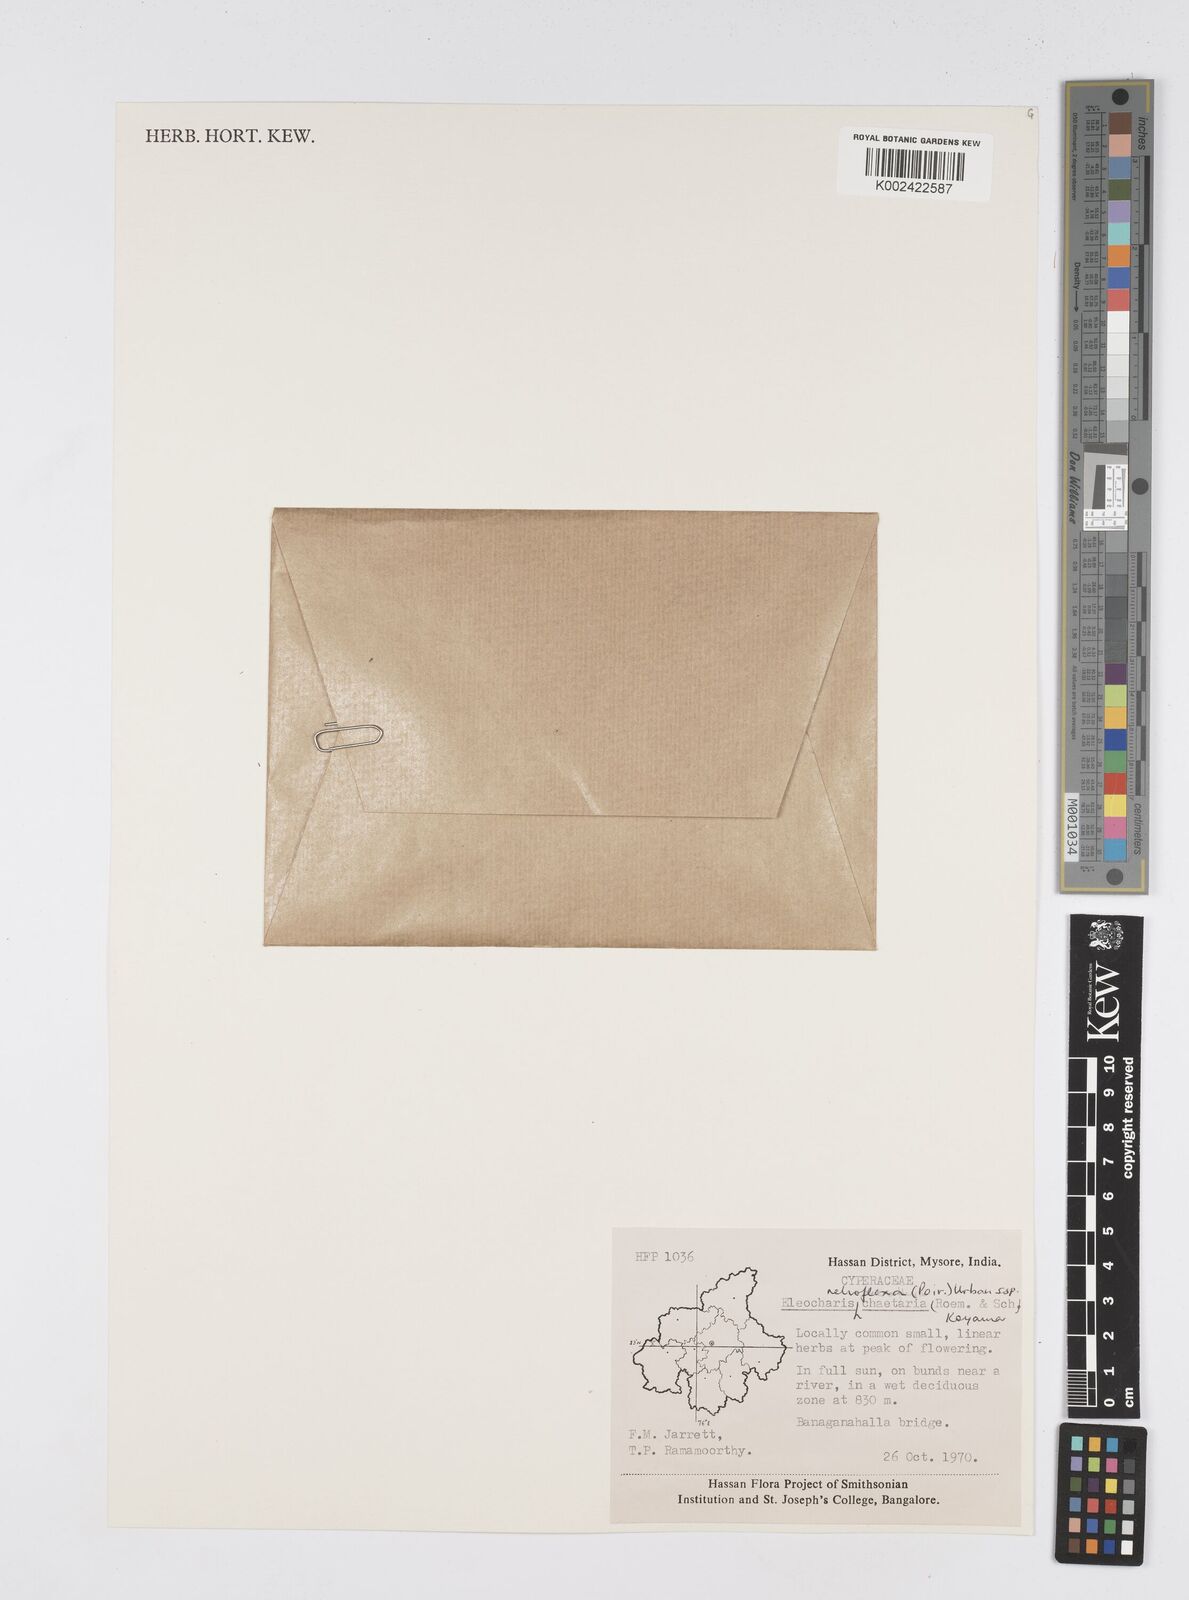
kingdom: Plantae
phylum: Tracheophyta
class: Liliopsida
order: Poales
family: Cyperaceae
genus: Eleocharis
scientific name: Eleocharis retroflexa
